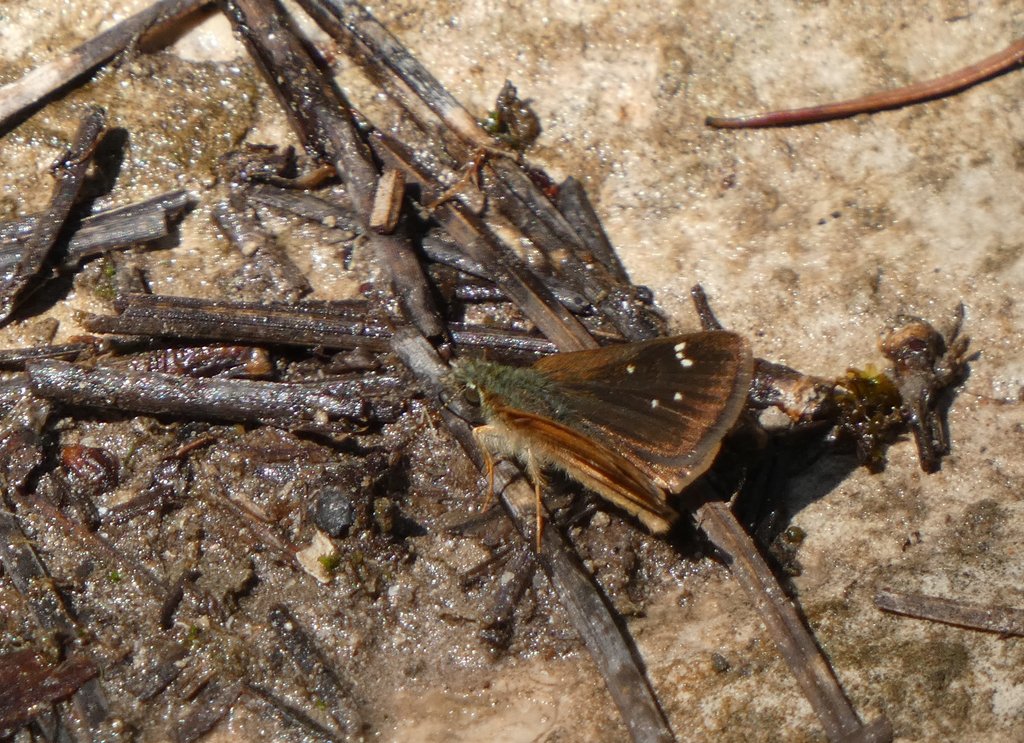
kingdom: Animalia
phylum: Arthropoda
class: Insecta
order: Lepidoptera
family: Hesperiidae
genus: Piruna
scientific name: Piruna pirus
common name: Russet Skipperling
